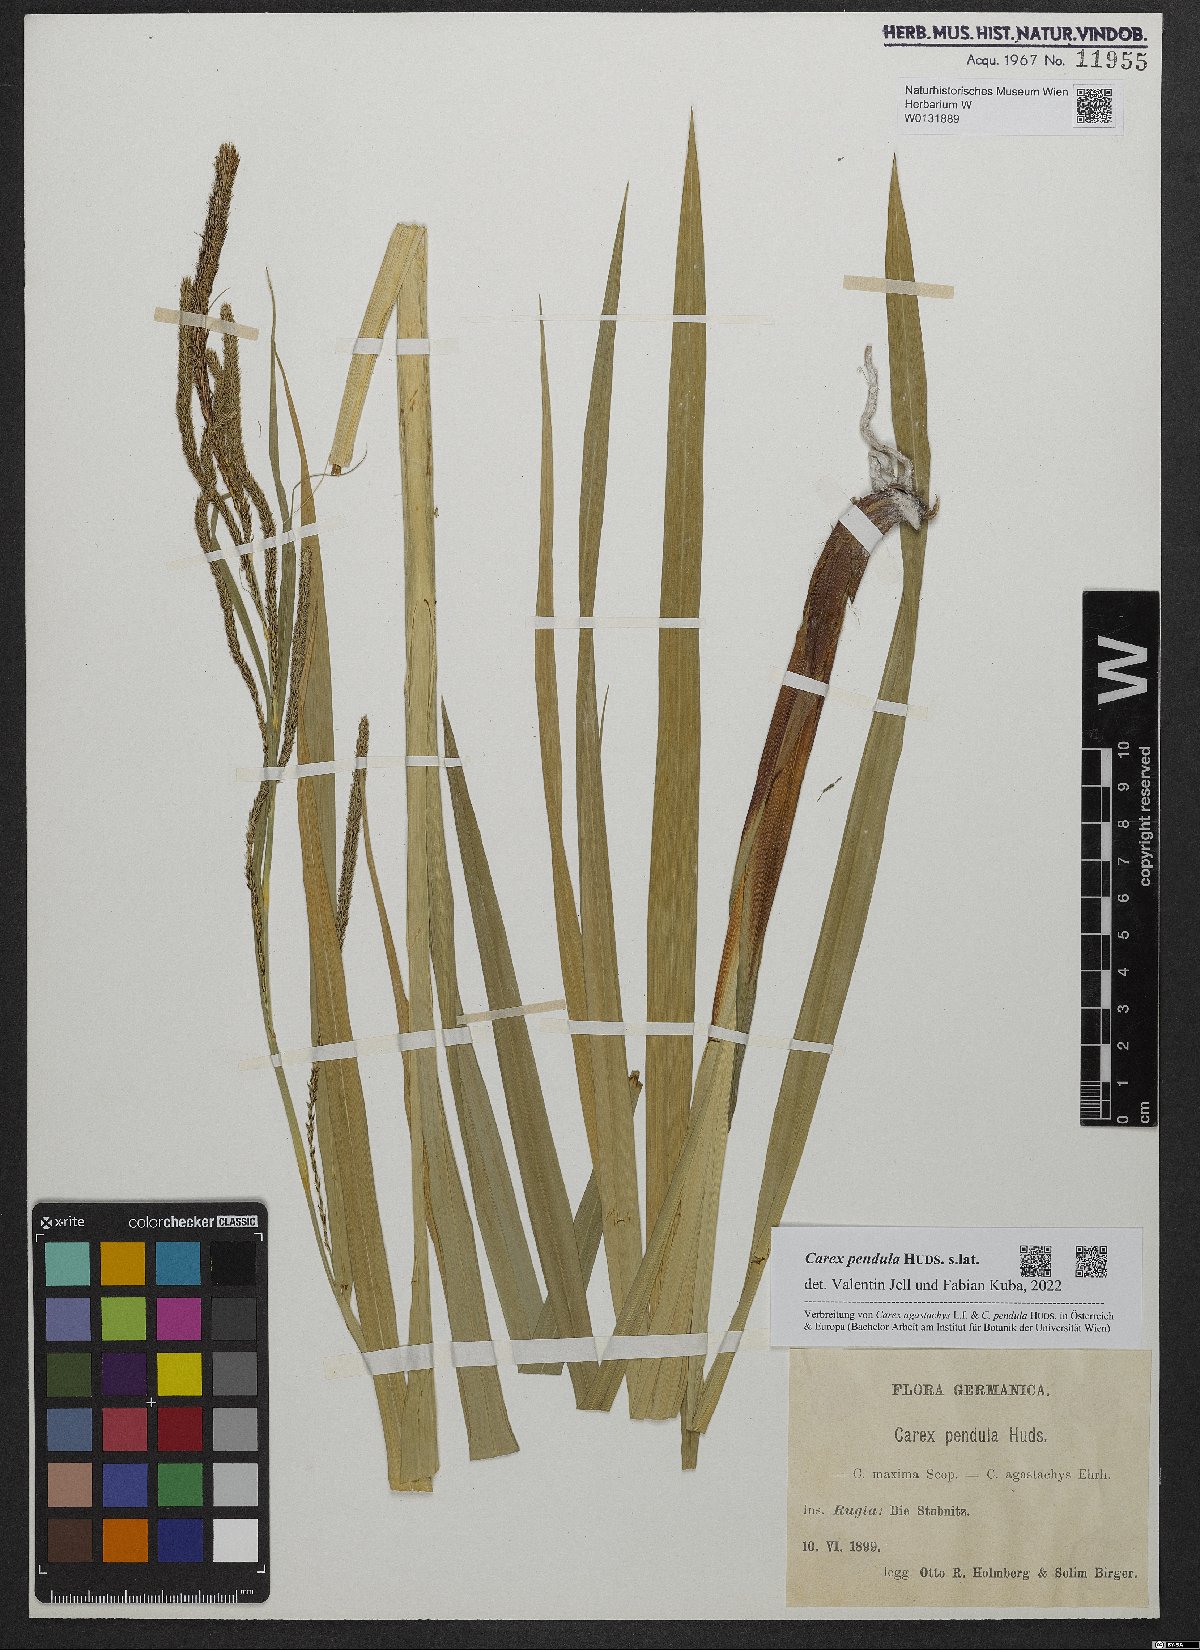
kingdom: Plantae
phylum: Tracheophyta
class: Liliopsida
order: Poales
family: Cyperaceae
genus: Carex
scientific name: Carex pendula
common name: Pendulous sedge
